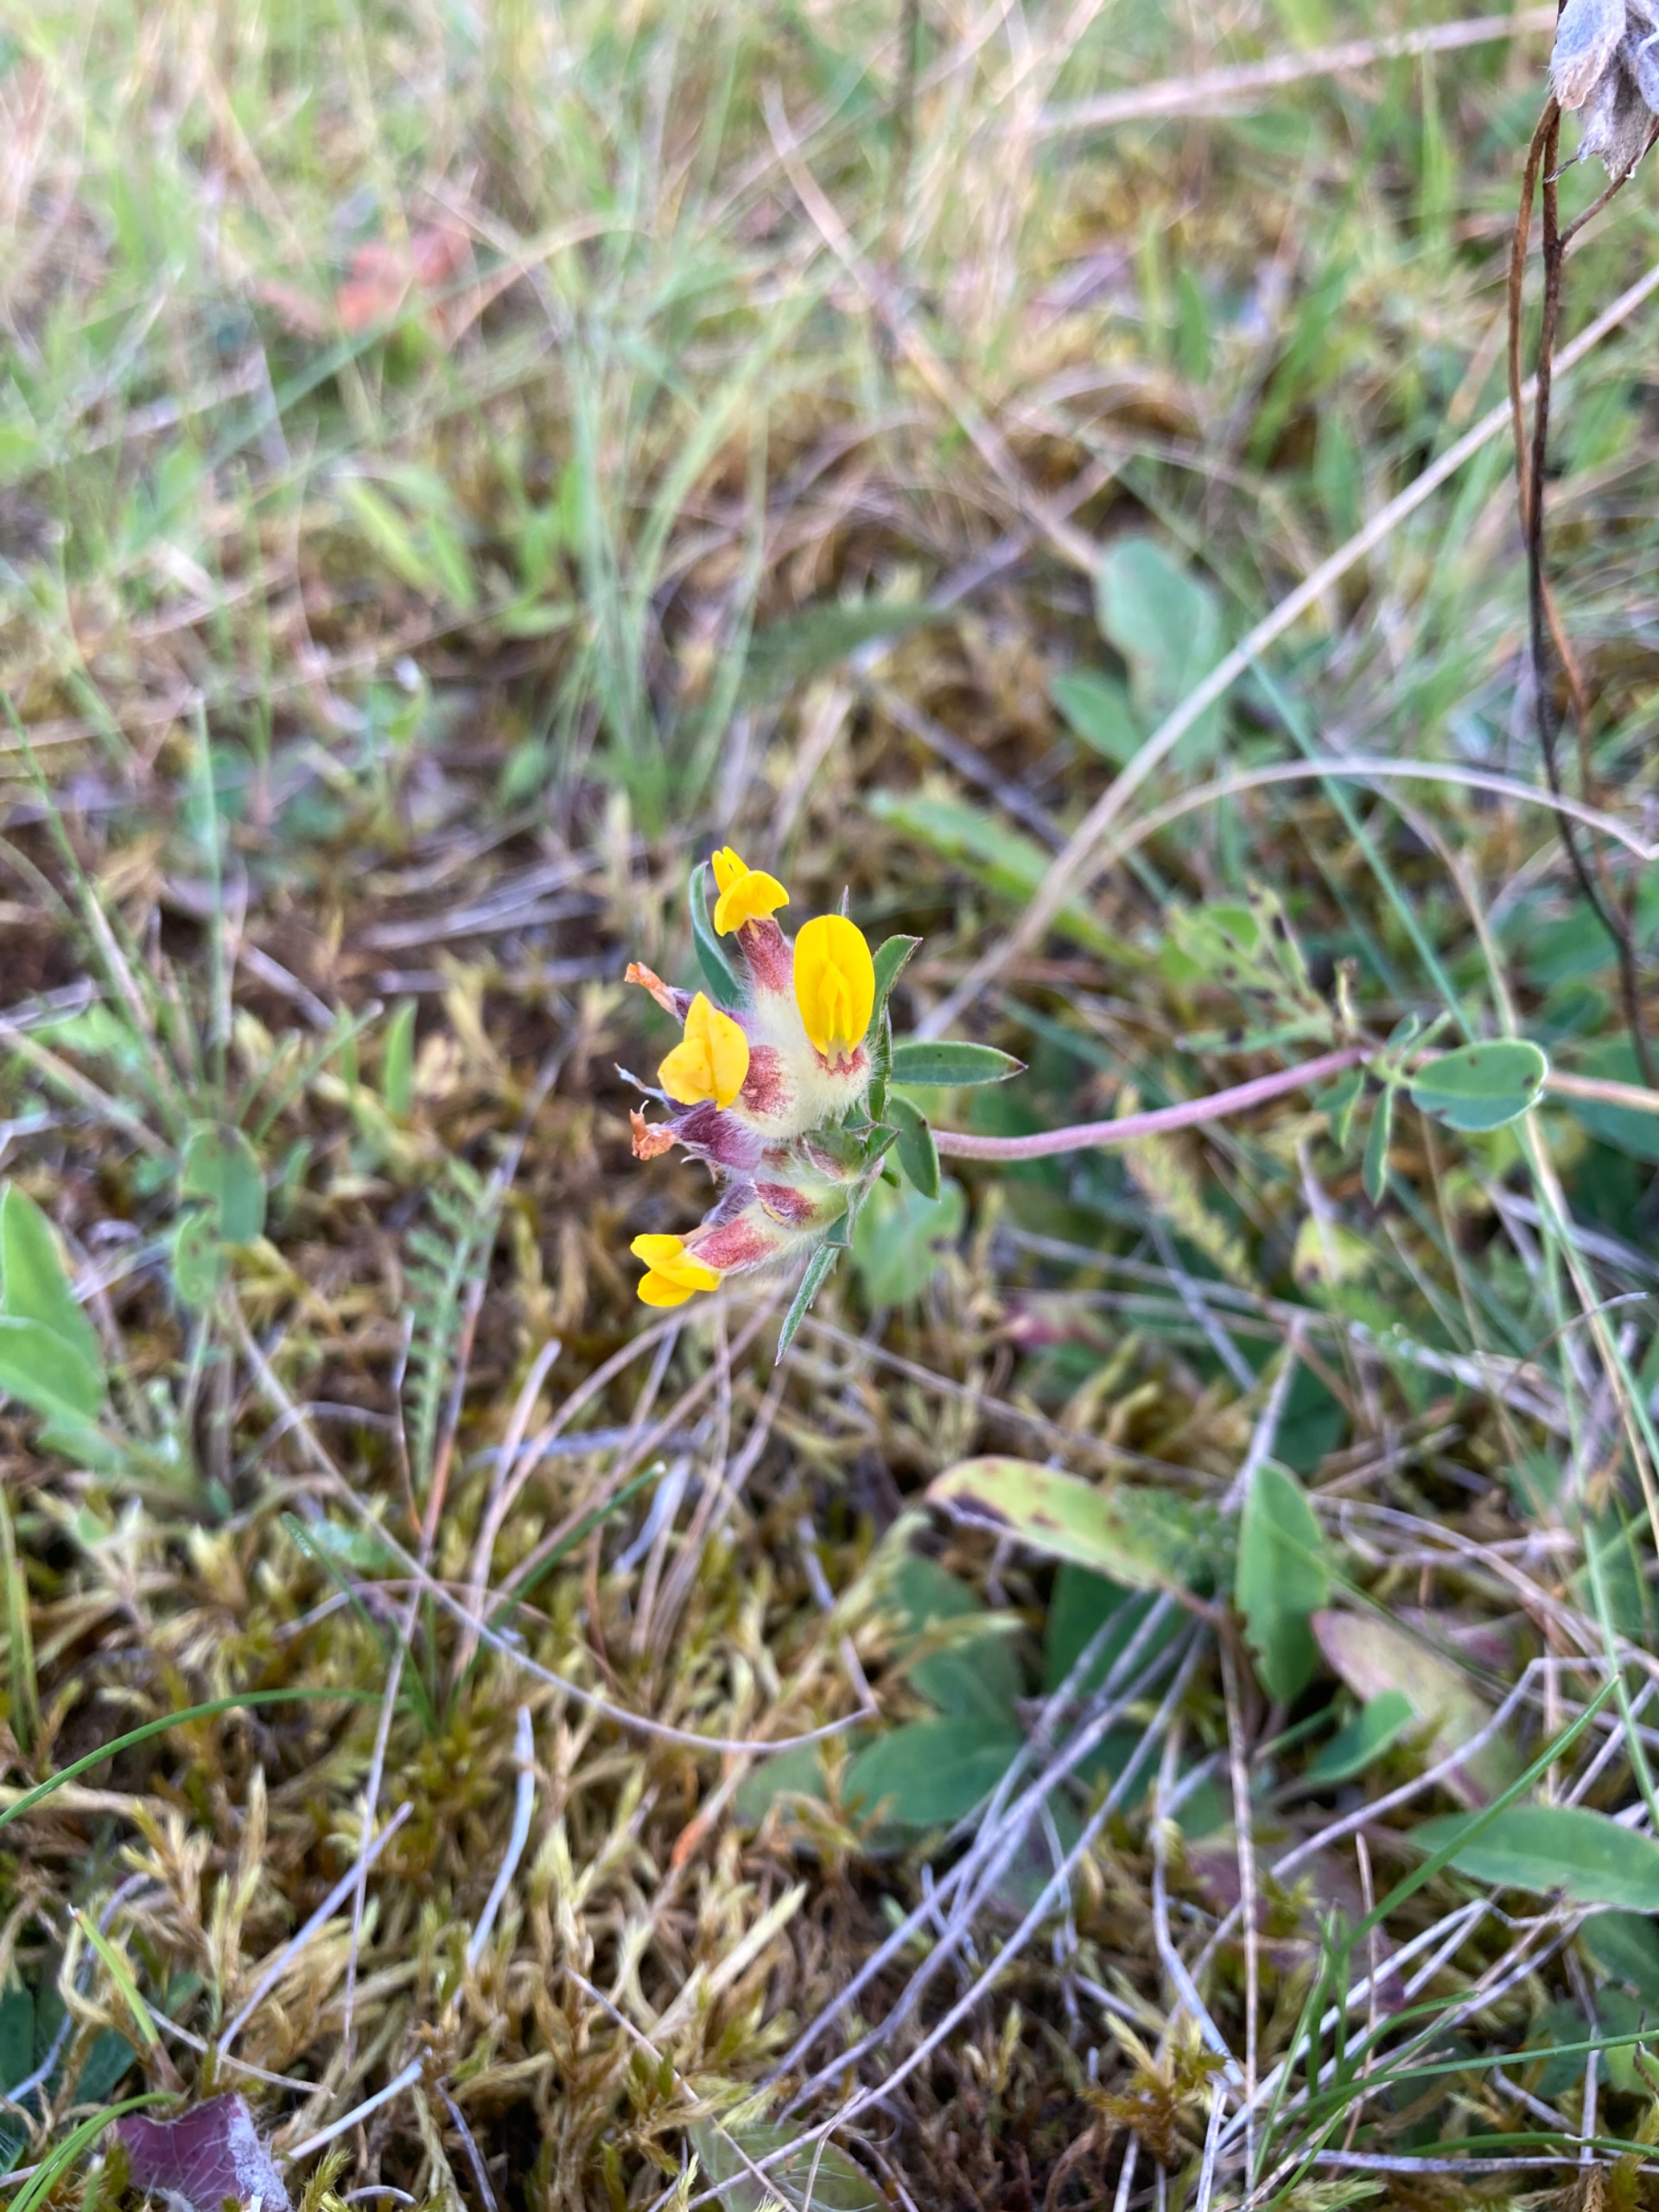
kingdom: Plantae
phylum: Tracheophyta
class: Magnoliopsida
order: Fabales
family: Fabaceae
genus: Anthyllis
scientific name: Anthyllis vulneraria
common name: Rundbælg
